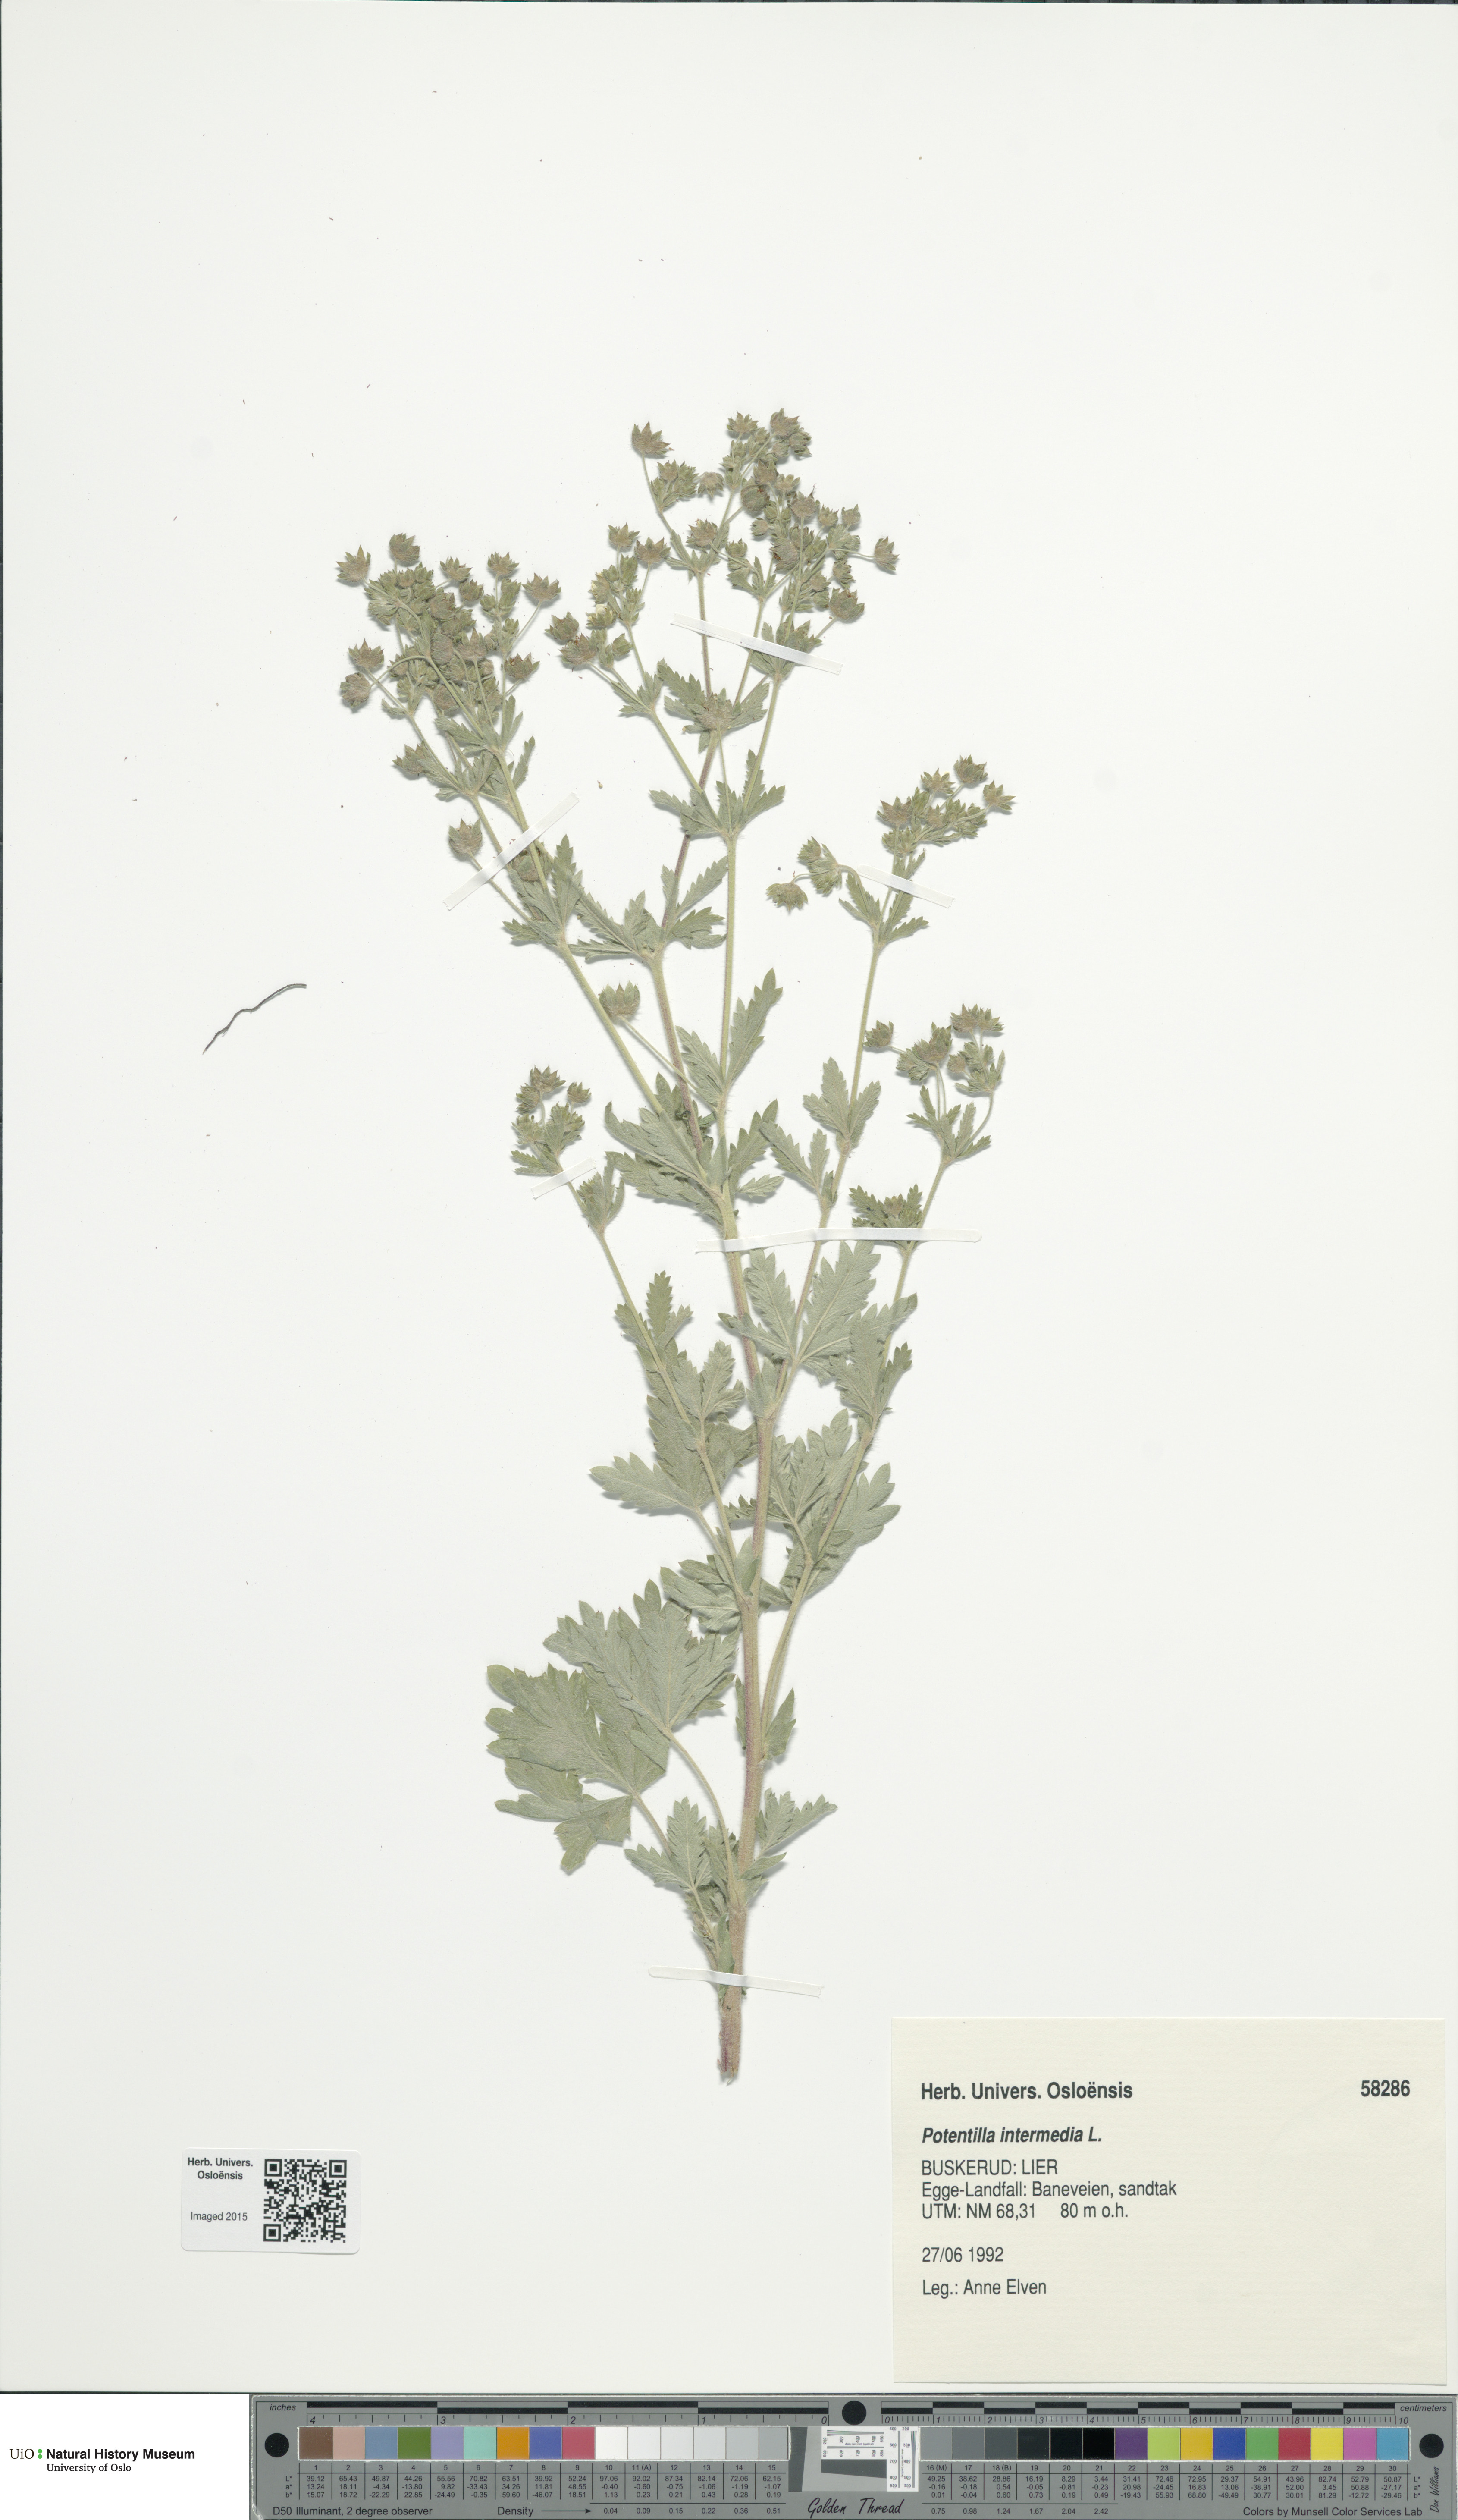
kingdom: Plantae
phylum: Tracheophyta
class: Magnoliopsida
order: Rosales
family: Rosaceae
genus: Potentilla
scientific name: Potentilla intermedia
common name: Downy cinquefoil
